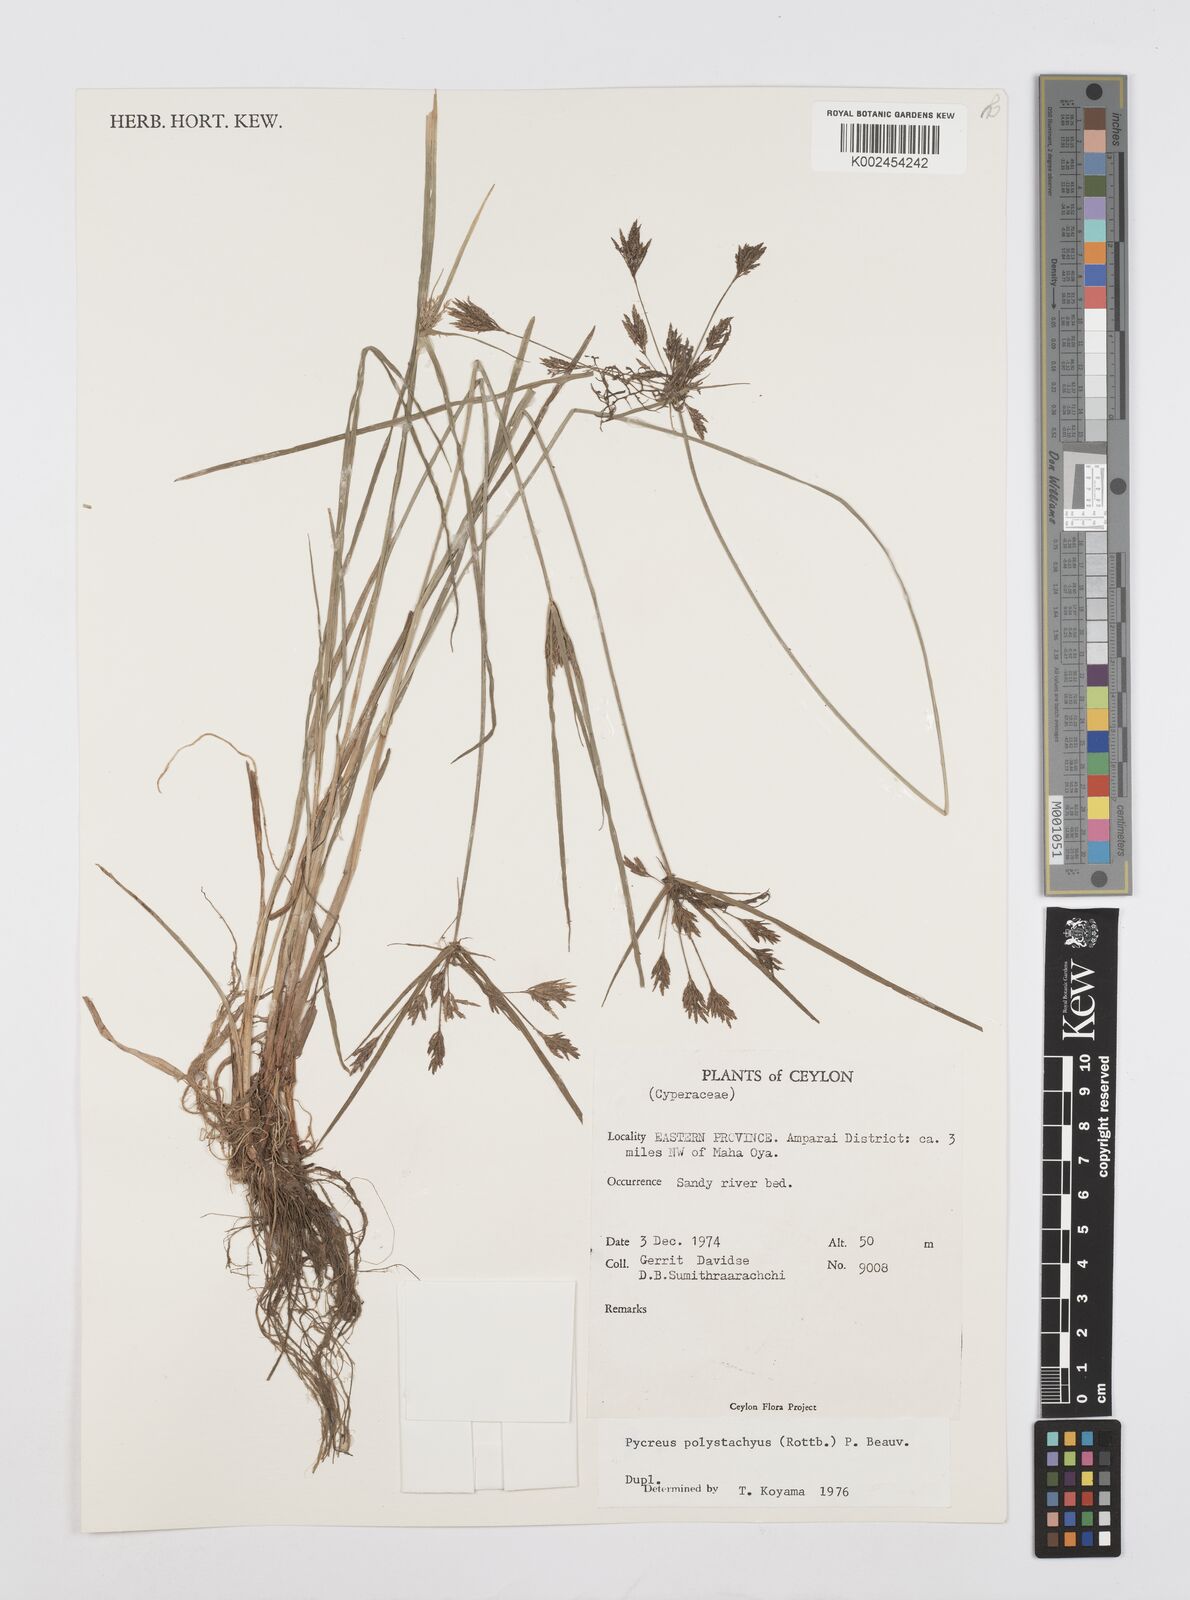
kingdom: Plantae
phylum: Tracheophyta
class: Liliopsida
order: Poales
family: Cyperaceae
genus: Cyperus
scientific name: Cyperus polystachyos
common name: Bunchy flat sedge
